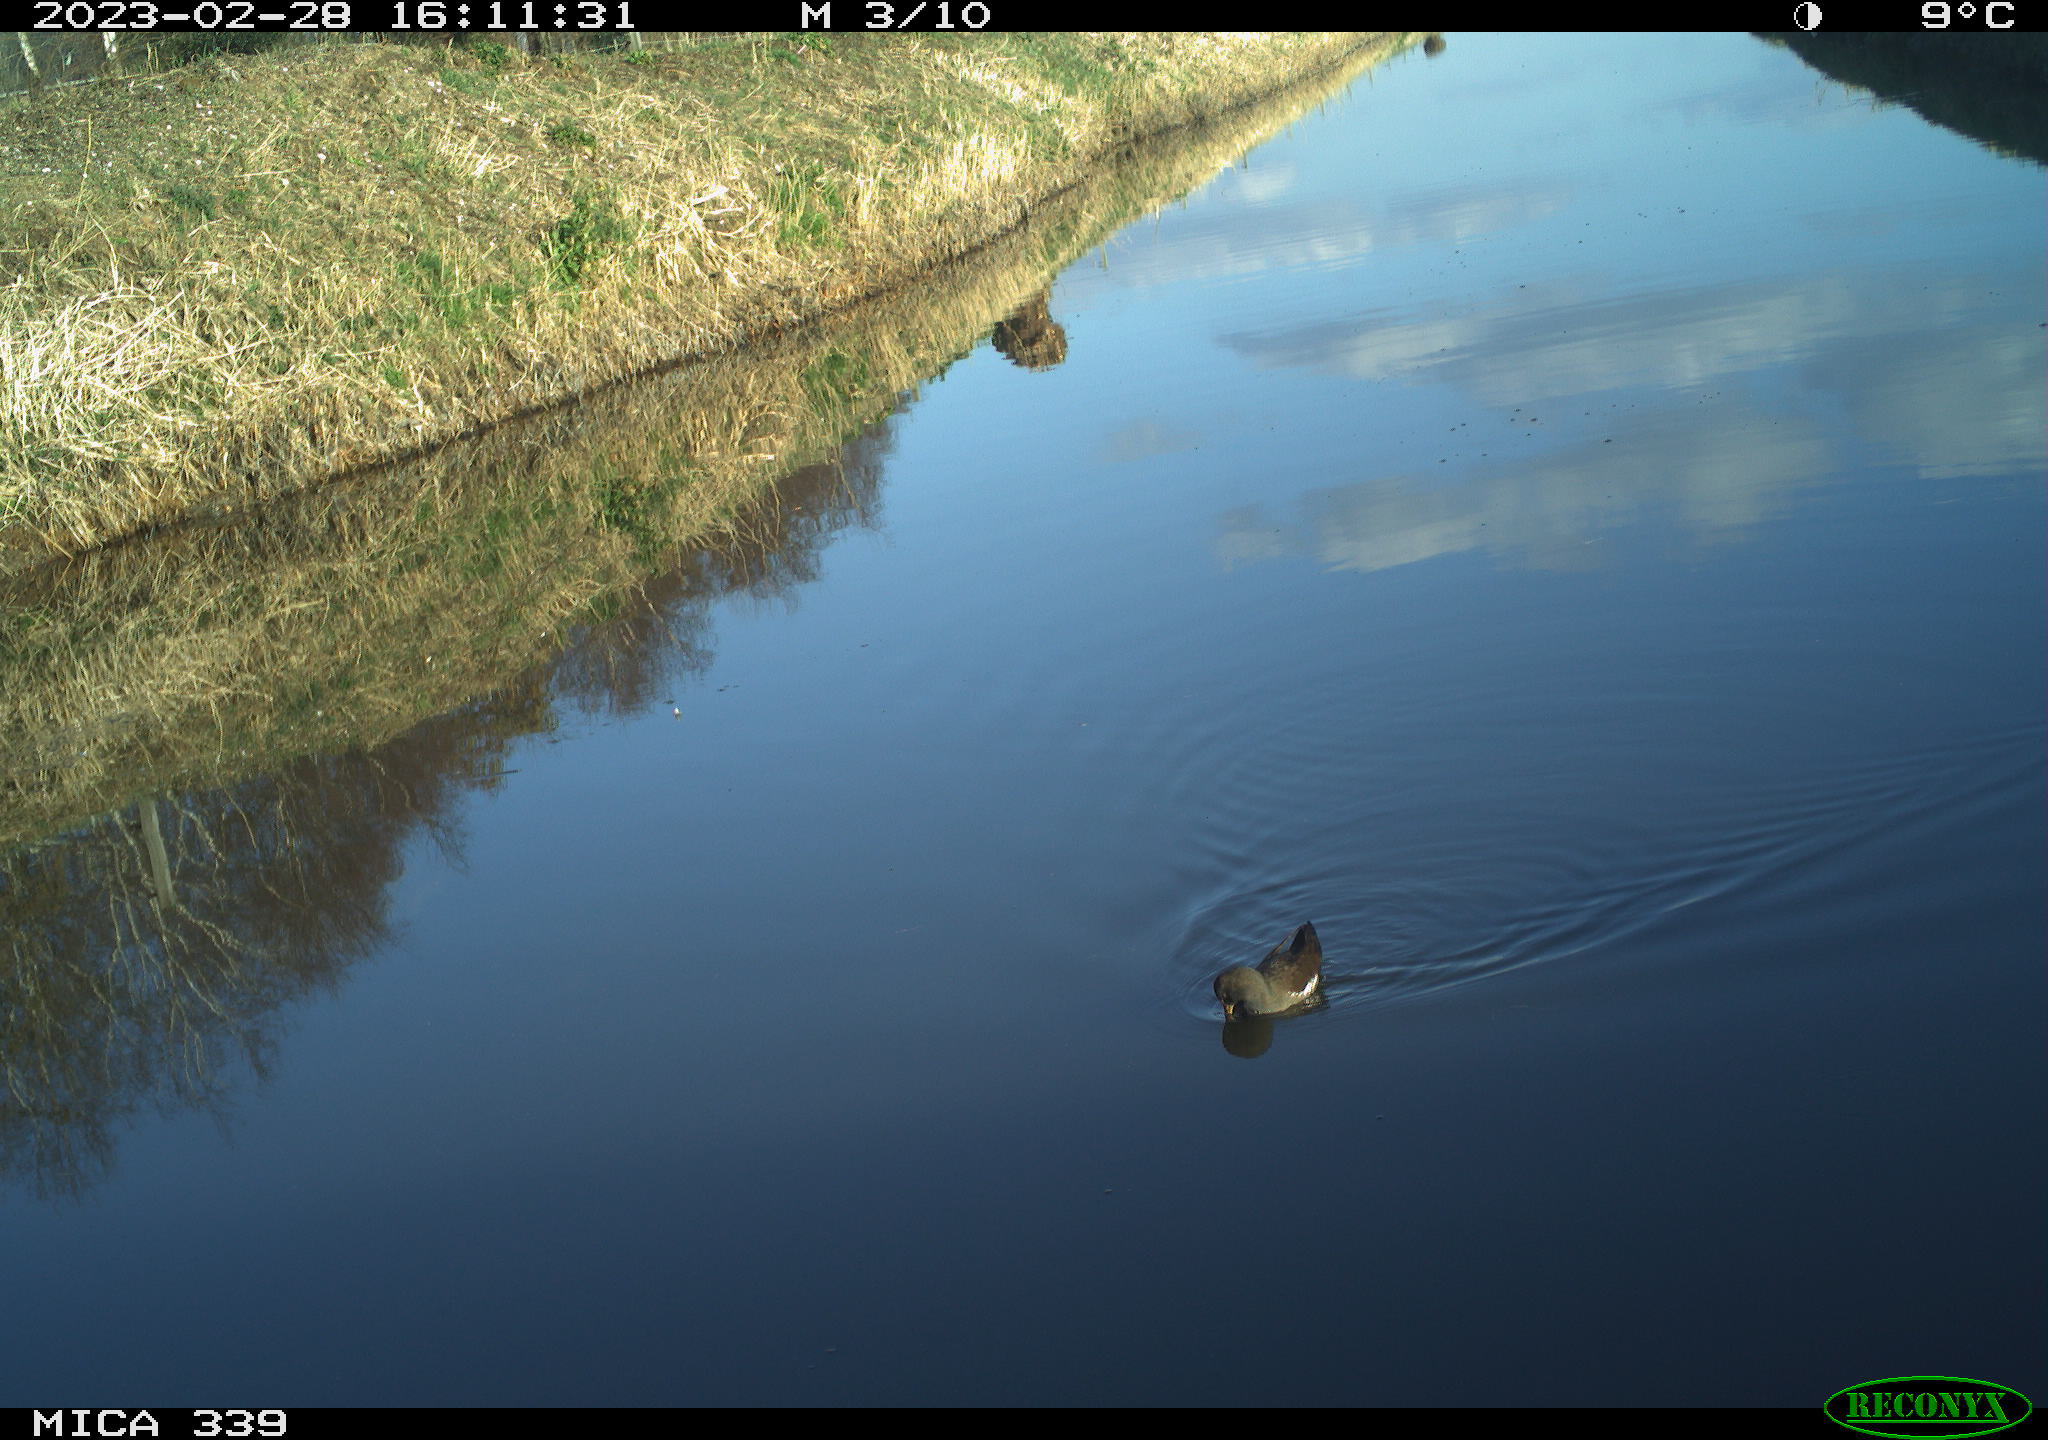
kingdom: Animalia
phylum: Chordata
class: Aves
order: Gruiformes
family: Rallidae
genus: Gallinula
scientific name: Gallinula chloropus
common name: Common moorhen
